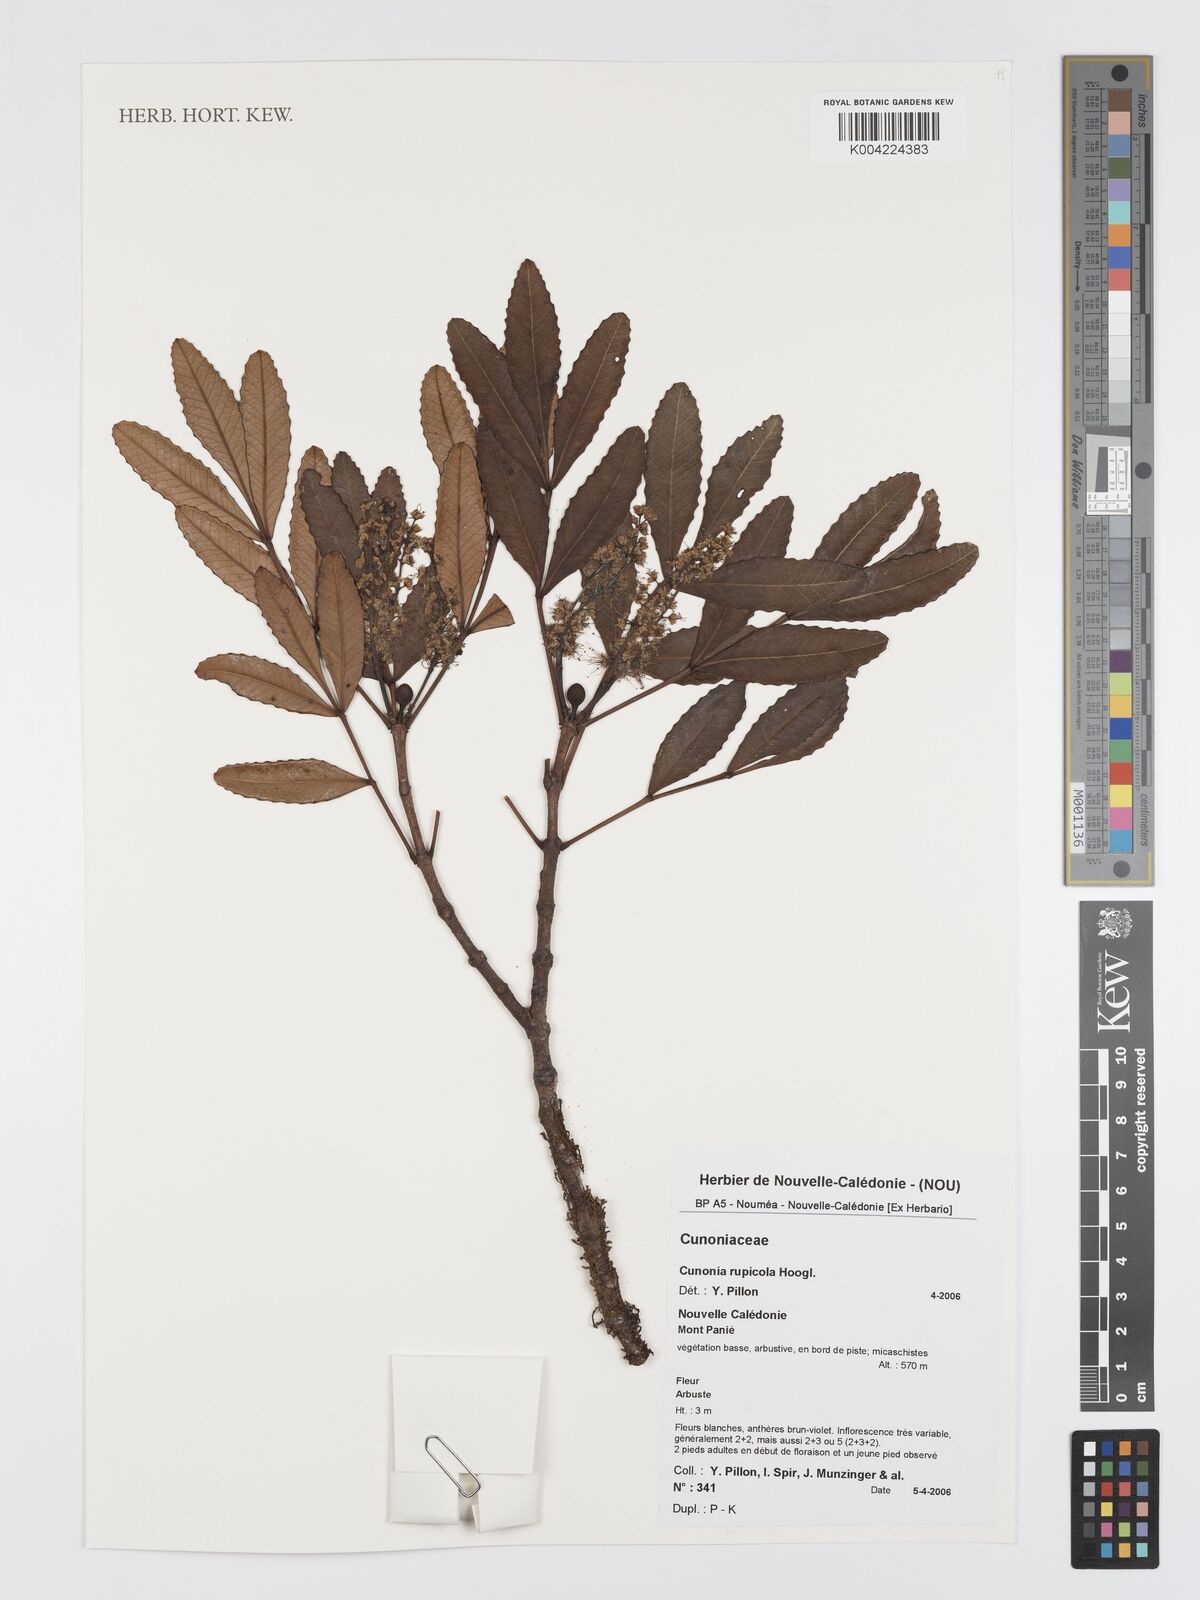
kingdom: Plantae
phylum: Tracheophyta
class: Magnoliopsida
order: Oxalidales
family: Cunoniaceae
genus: Cunonia
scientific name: Cunonia rupicola
